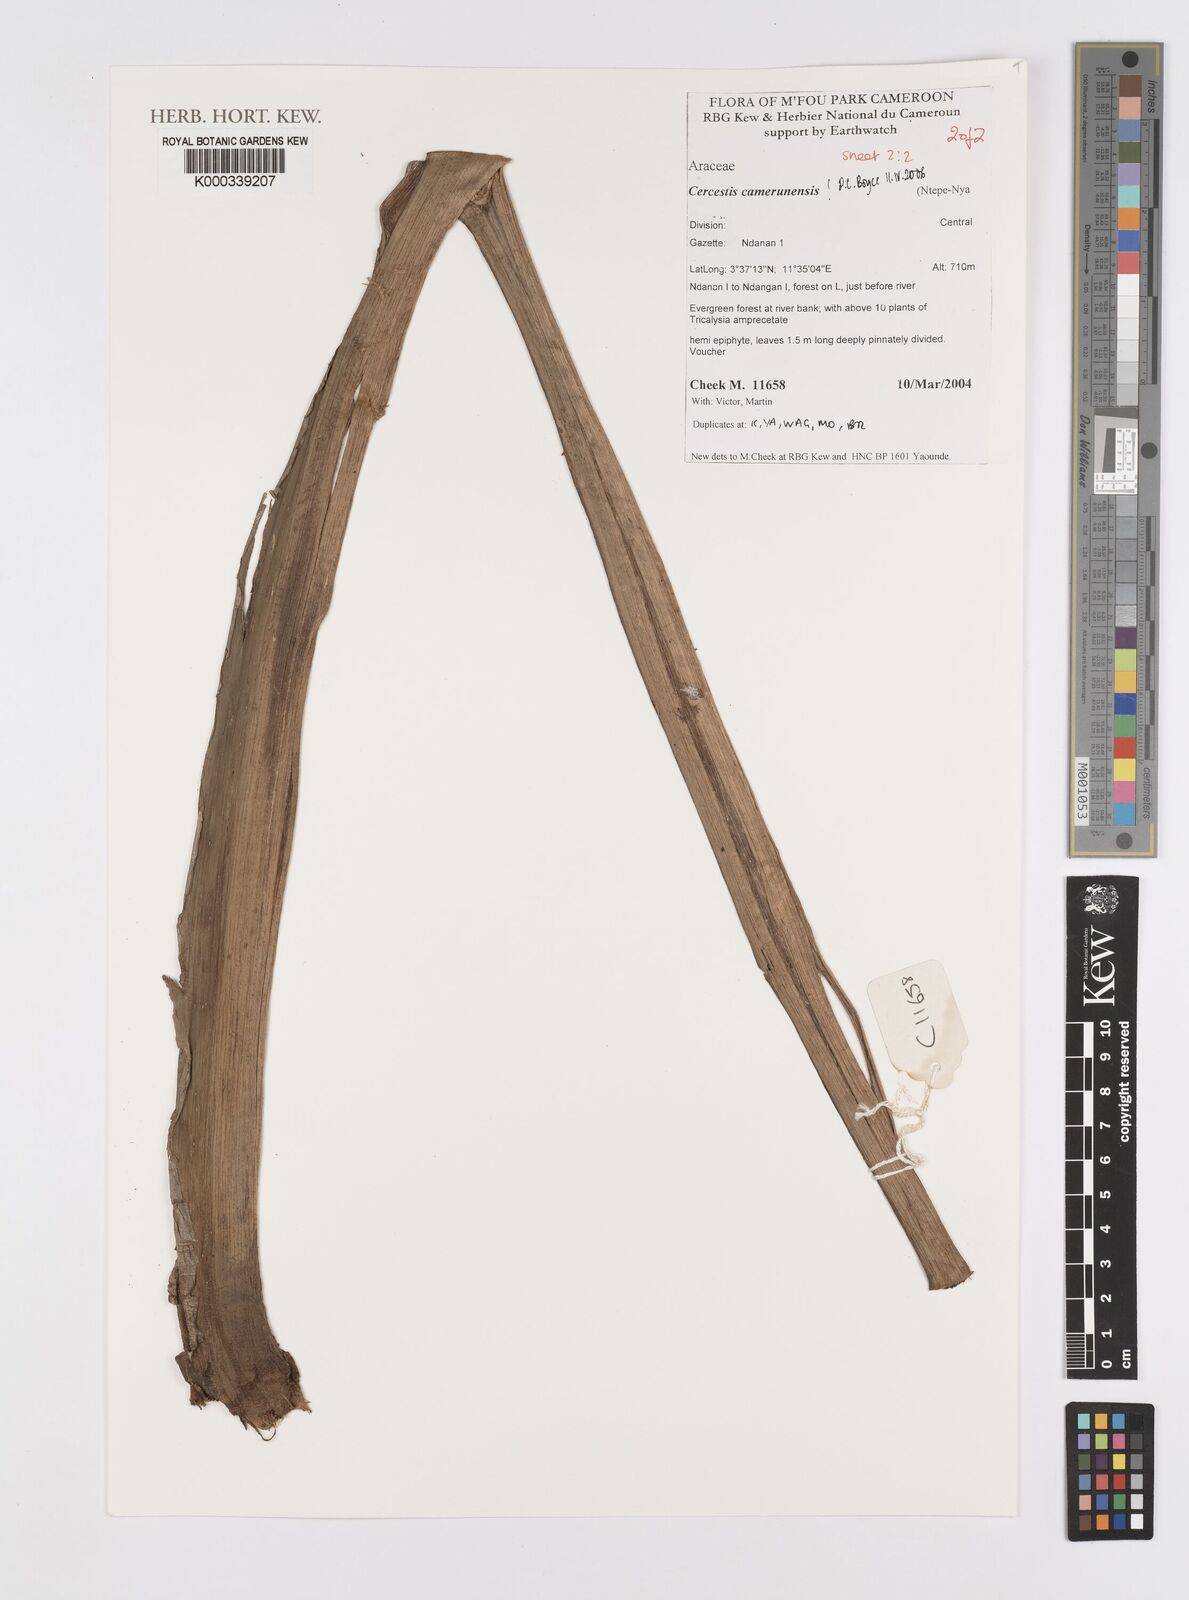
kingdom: Plantae
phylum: Tracheophyta
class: Liliopsida
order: Alismatales
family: Araceae
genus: Cercestis
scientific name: Cercestis camerunensis
